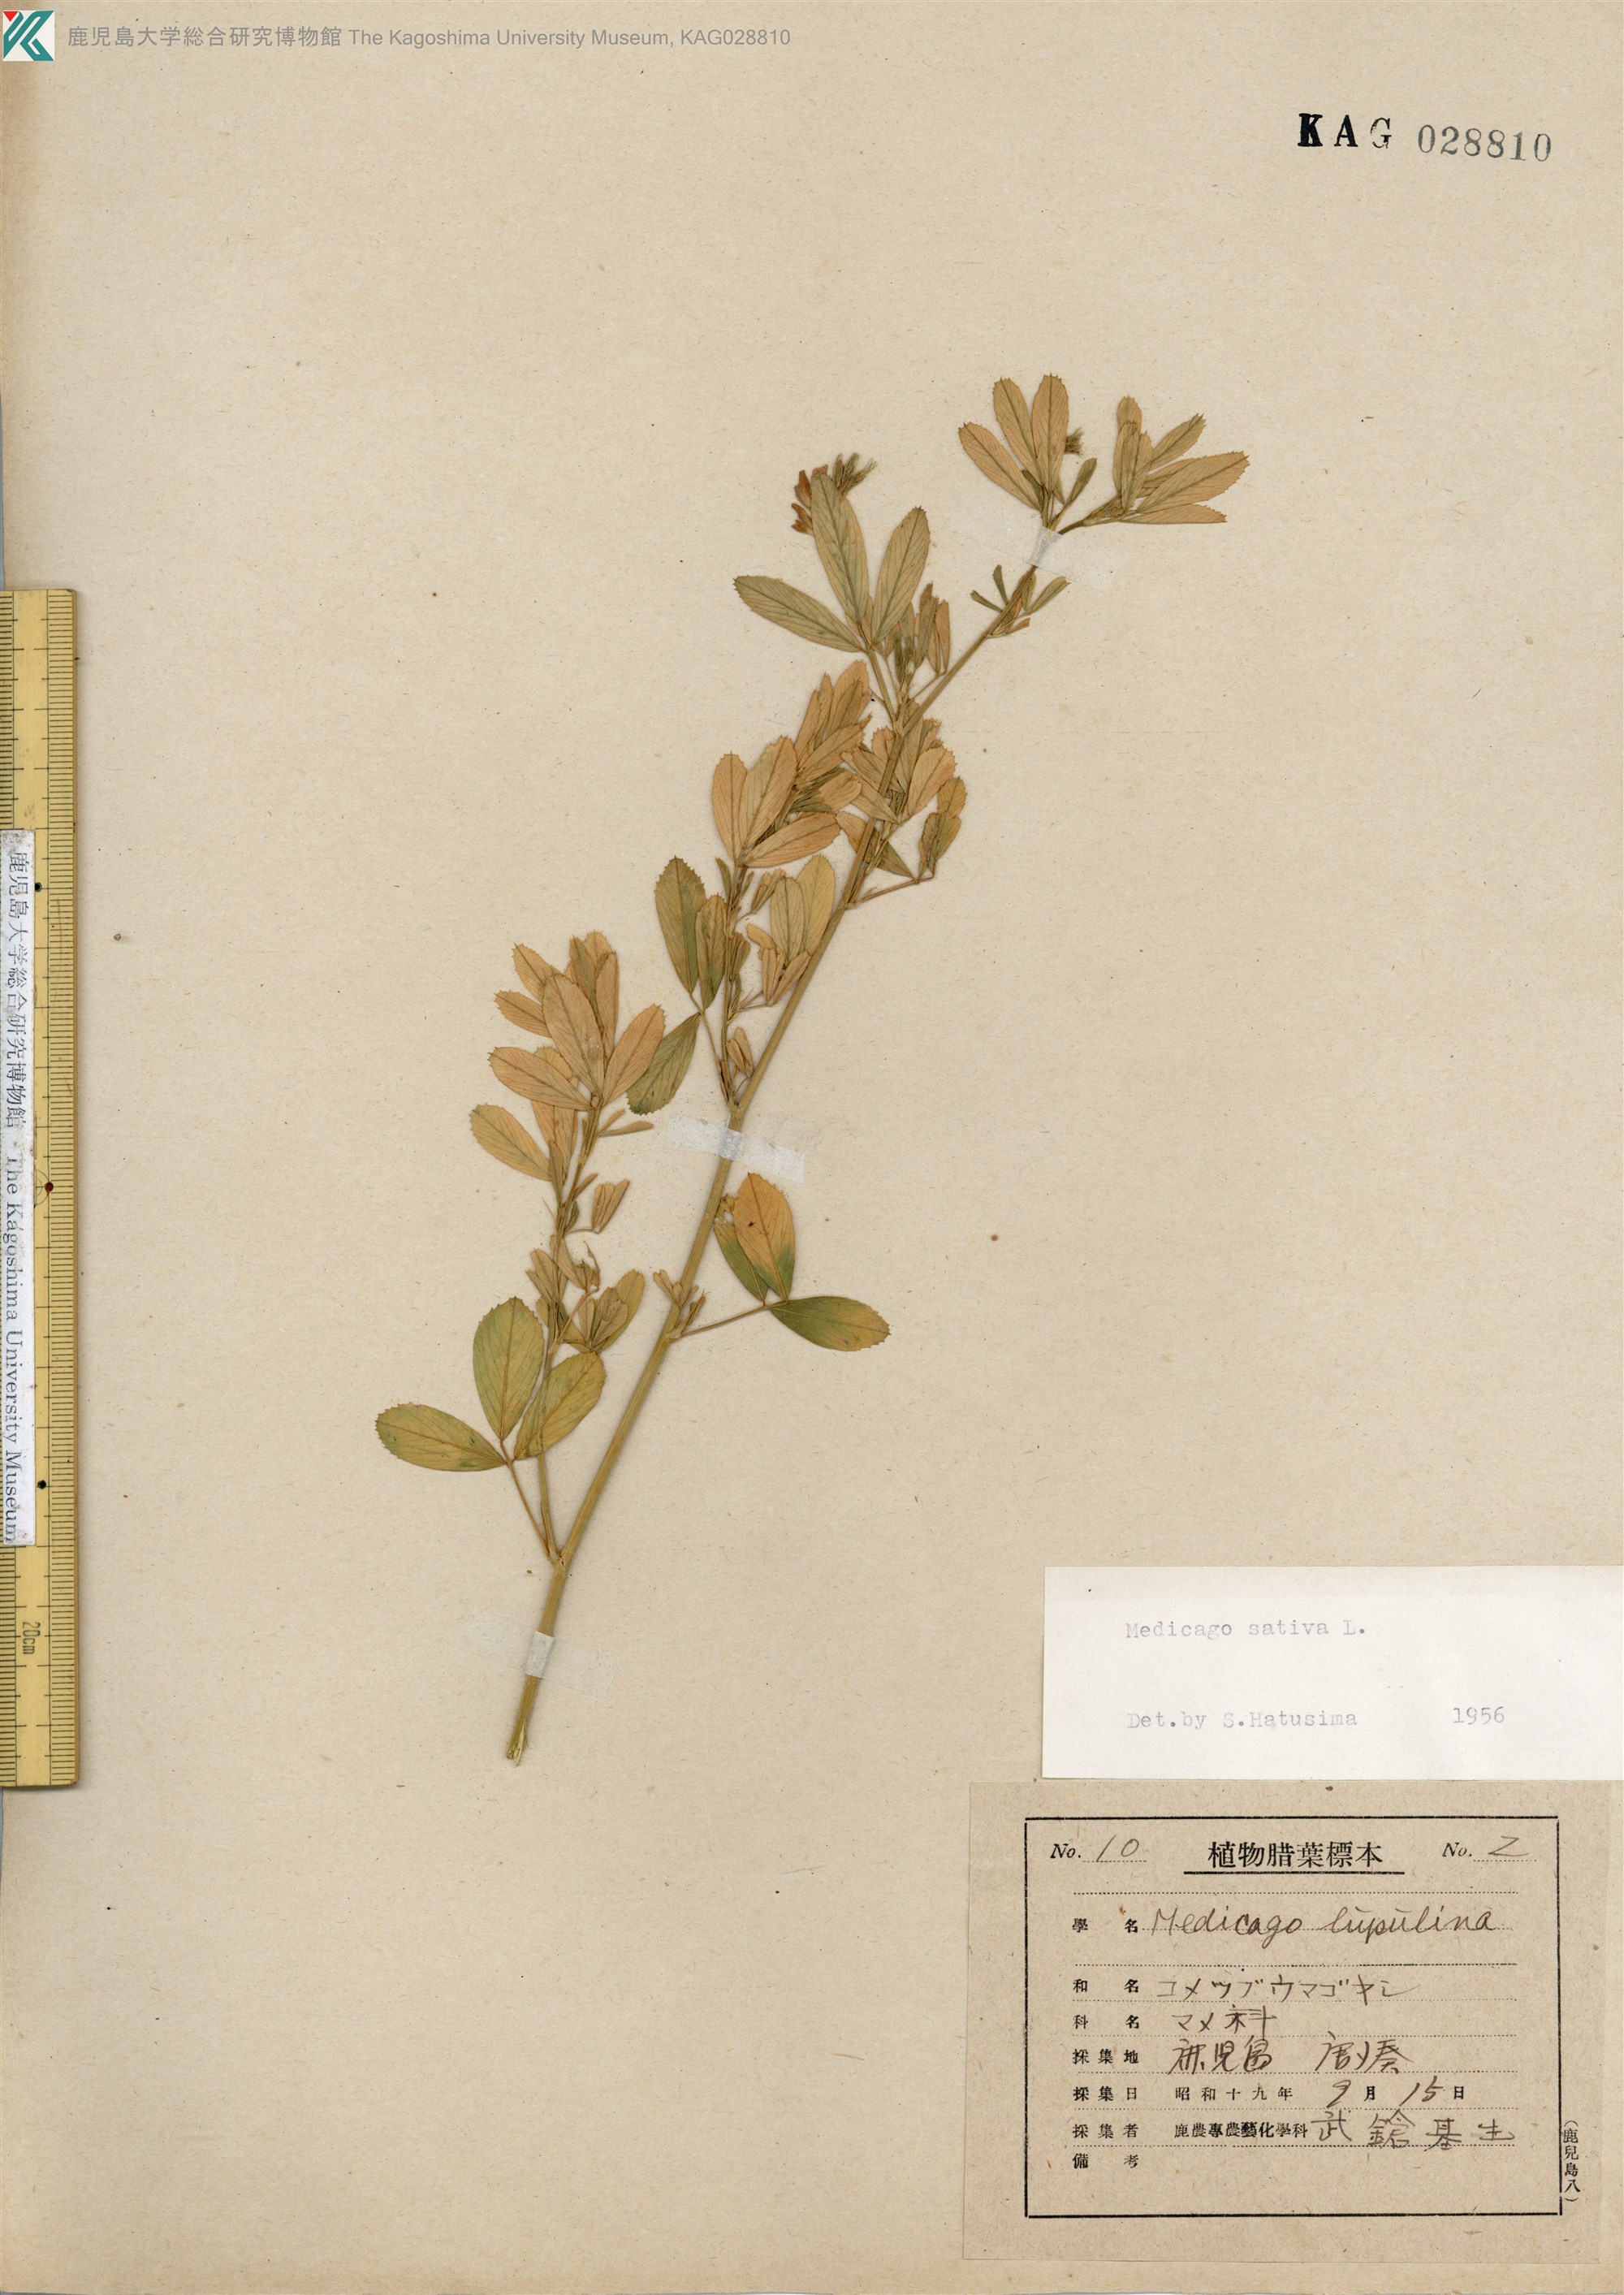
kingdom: Plantae
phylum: Tracheophyta
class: Magnoliopsida
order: Fabales
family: Fabaceae
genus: Medicago
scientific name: Medicago sativa
